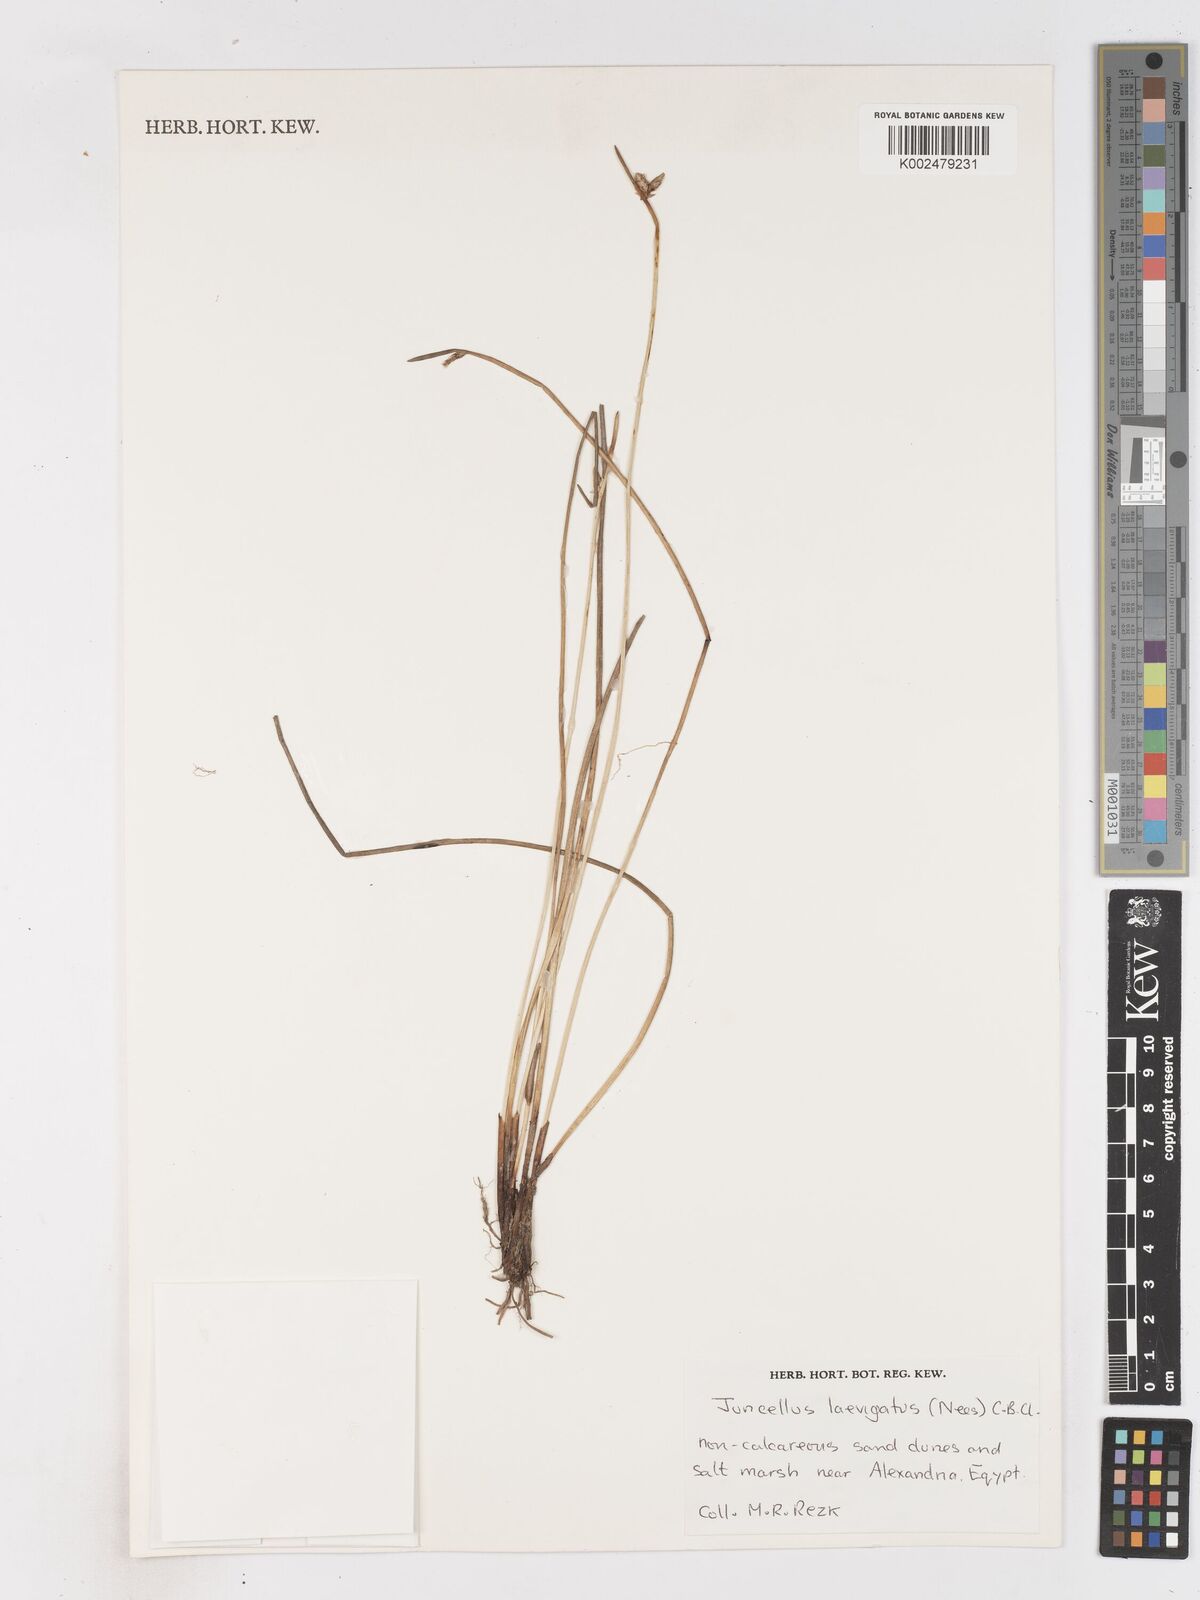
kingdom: Plantae
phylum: Tracheophyta
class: Liliopsida
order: Poales
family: Cyperaceae
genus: Cyperus
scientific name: Cyperus laevigatus
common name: Smooth flat sedge
